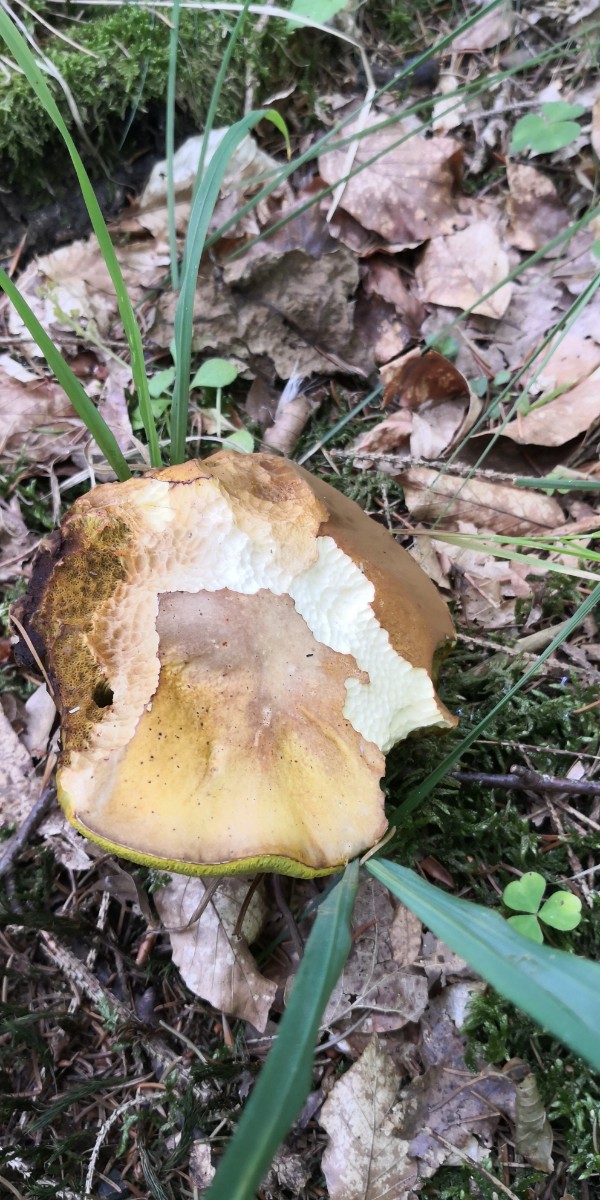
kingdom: Fungi
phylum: Basidiomycota
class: Agaricomycetes
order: Boletales
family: Boletaceae
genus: Boletus
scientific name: Boletus reticulatus
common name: sommer-rørhat
